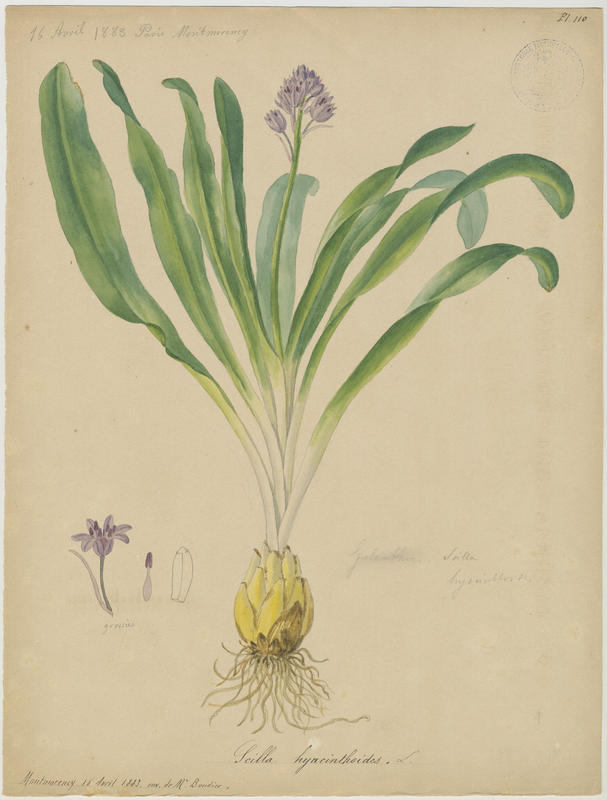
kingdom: Plantae
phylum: Tracheophyta
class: Liliopsida
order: Asparagales
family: Asparagaceae
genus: Scilla
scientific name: Scilla hyacinthoides
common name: Scilla
